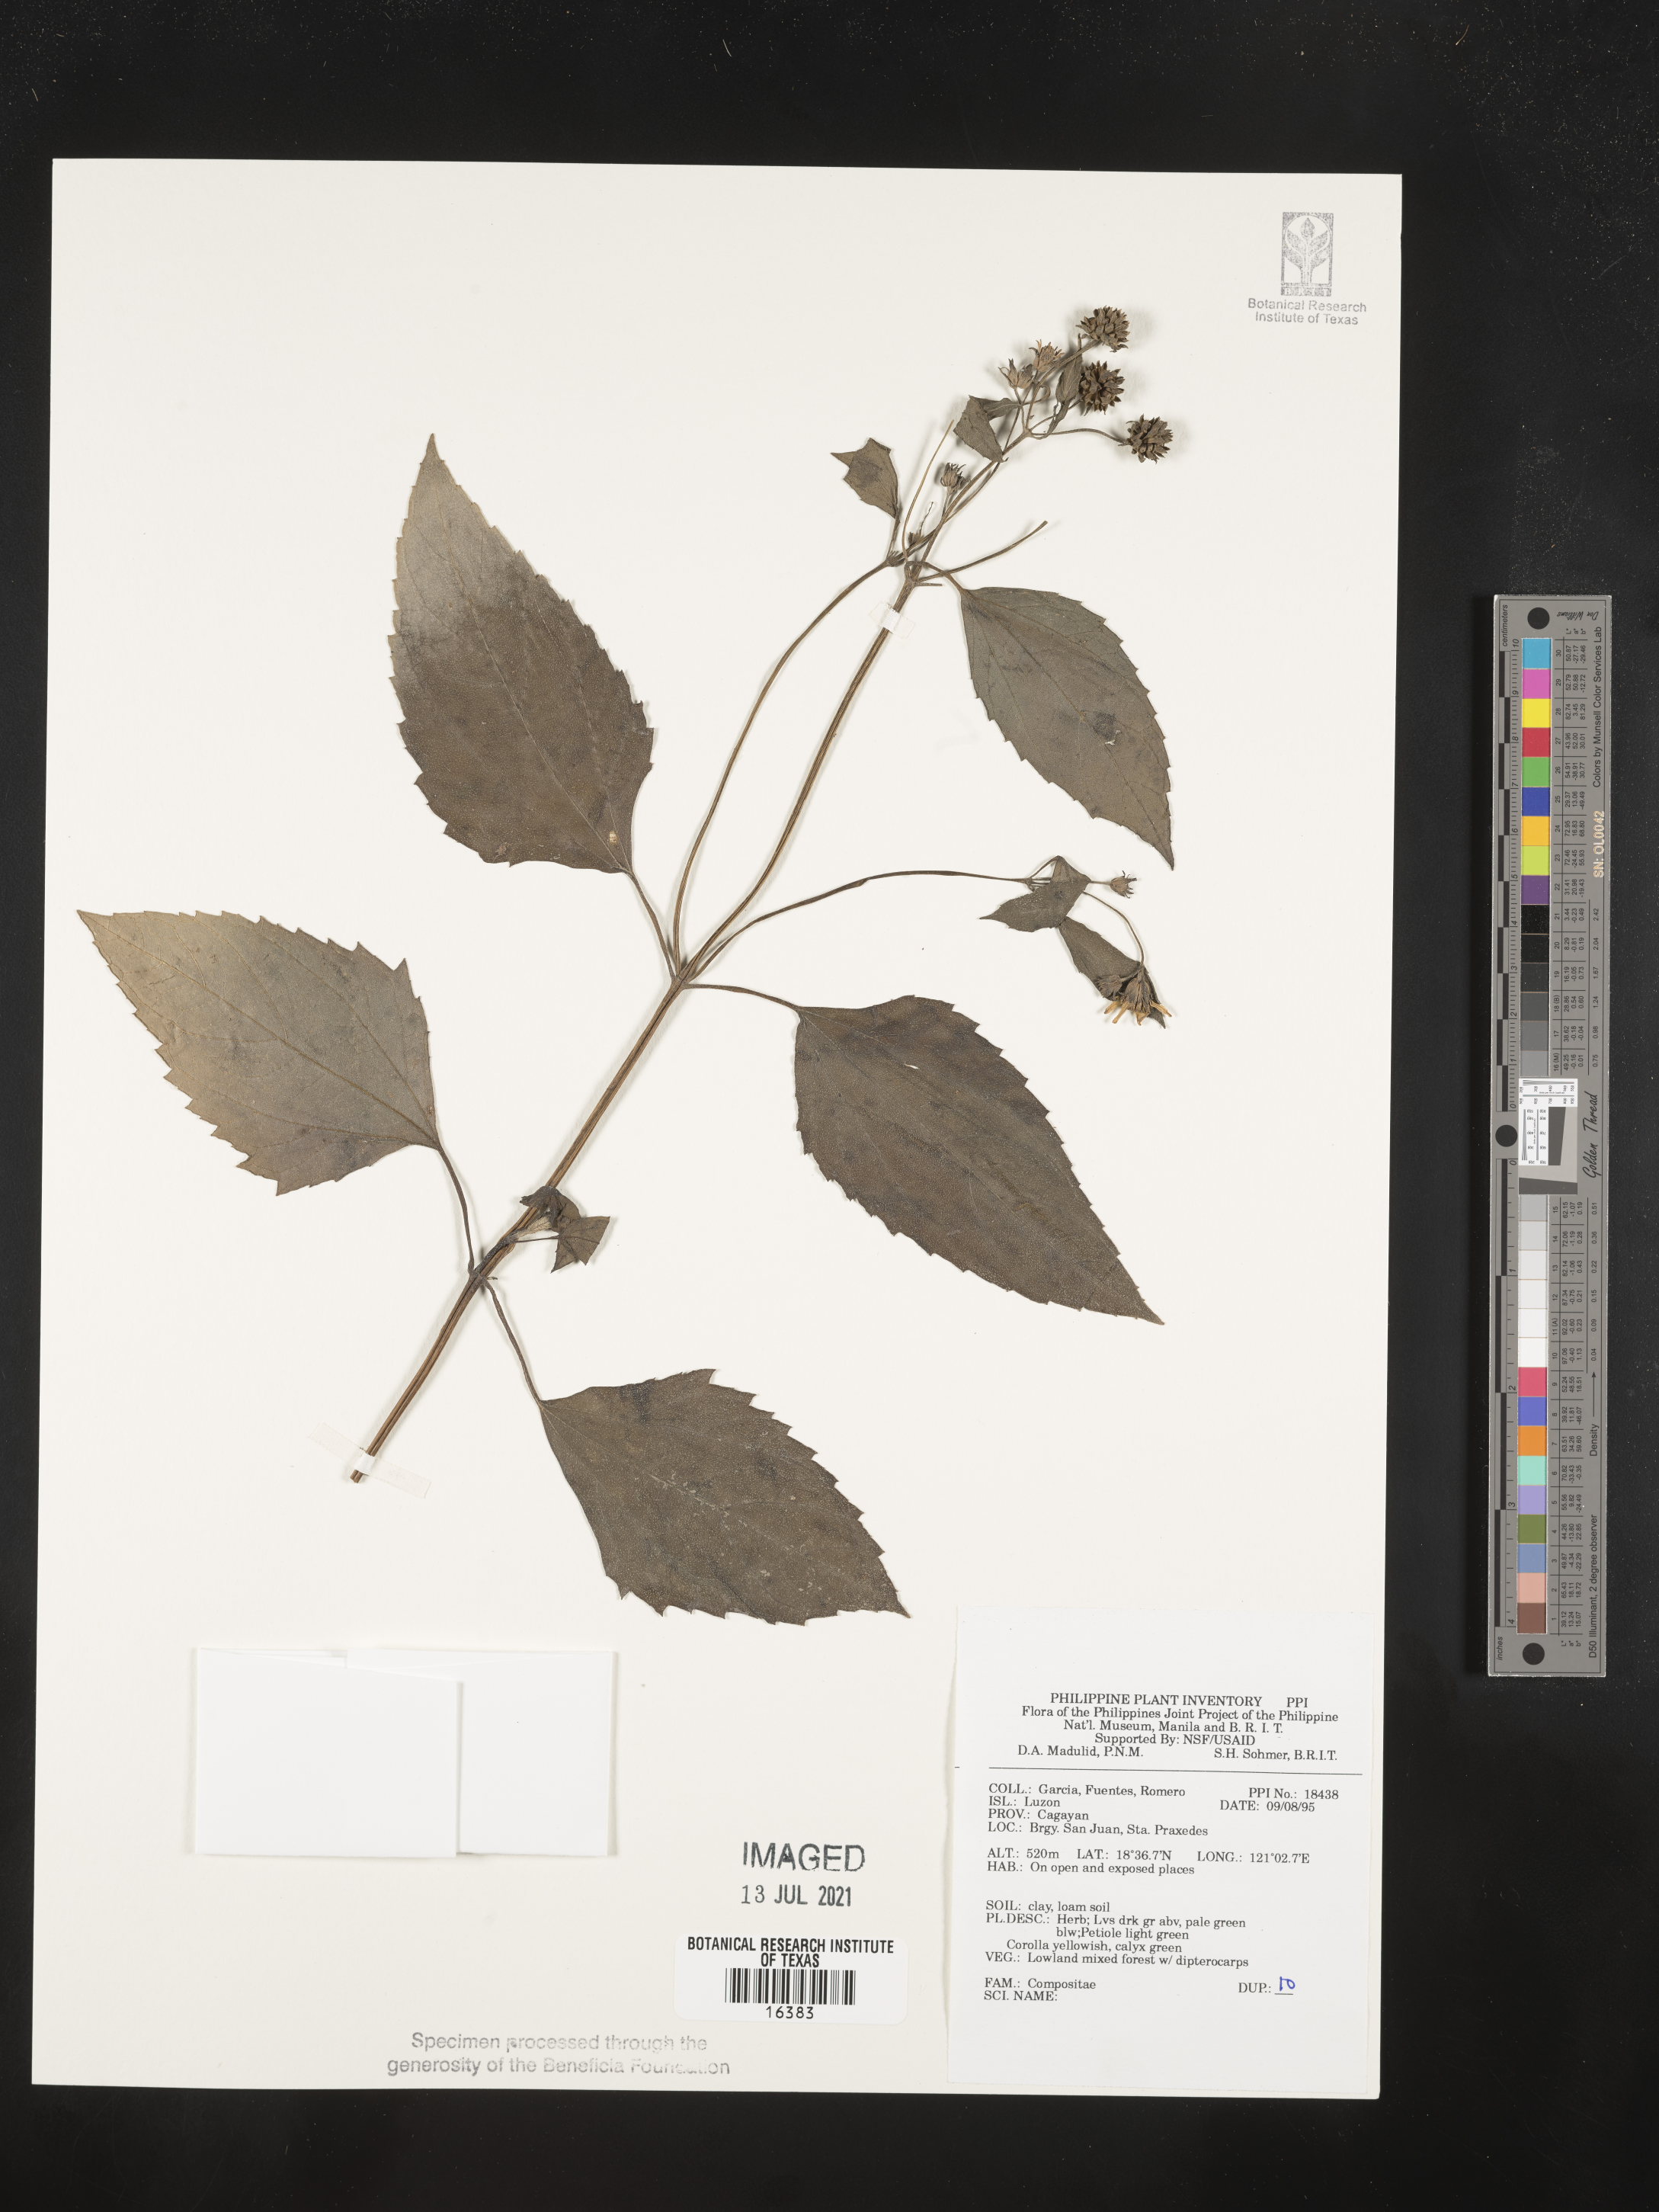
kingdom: Plantae
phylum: Tracheophyta
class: Magnoliopsida
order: Asterales
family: Asteraceae
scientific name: Asteraceae
